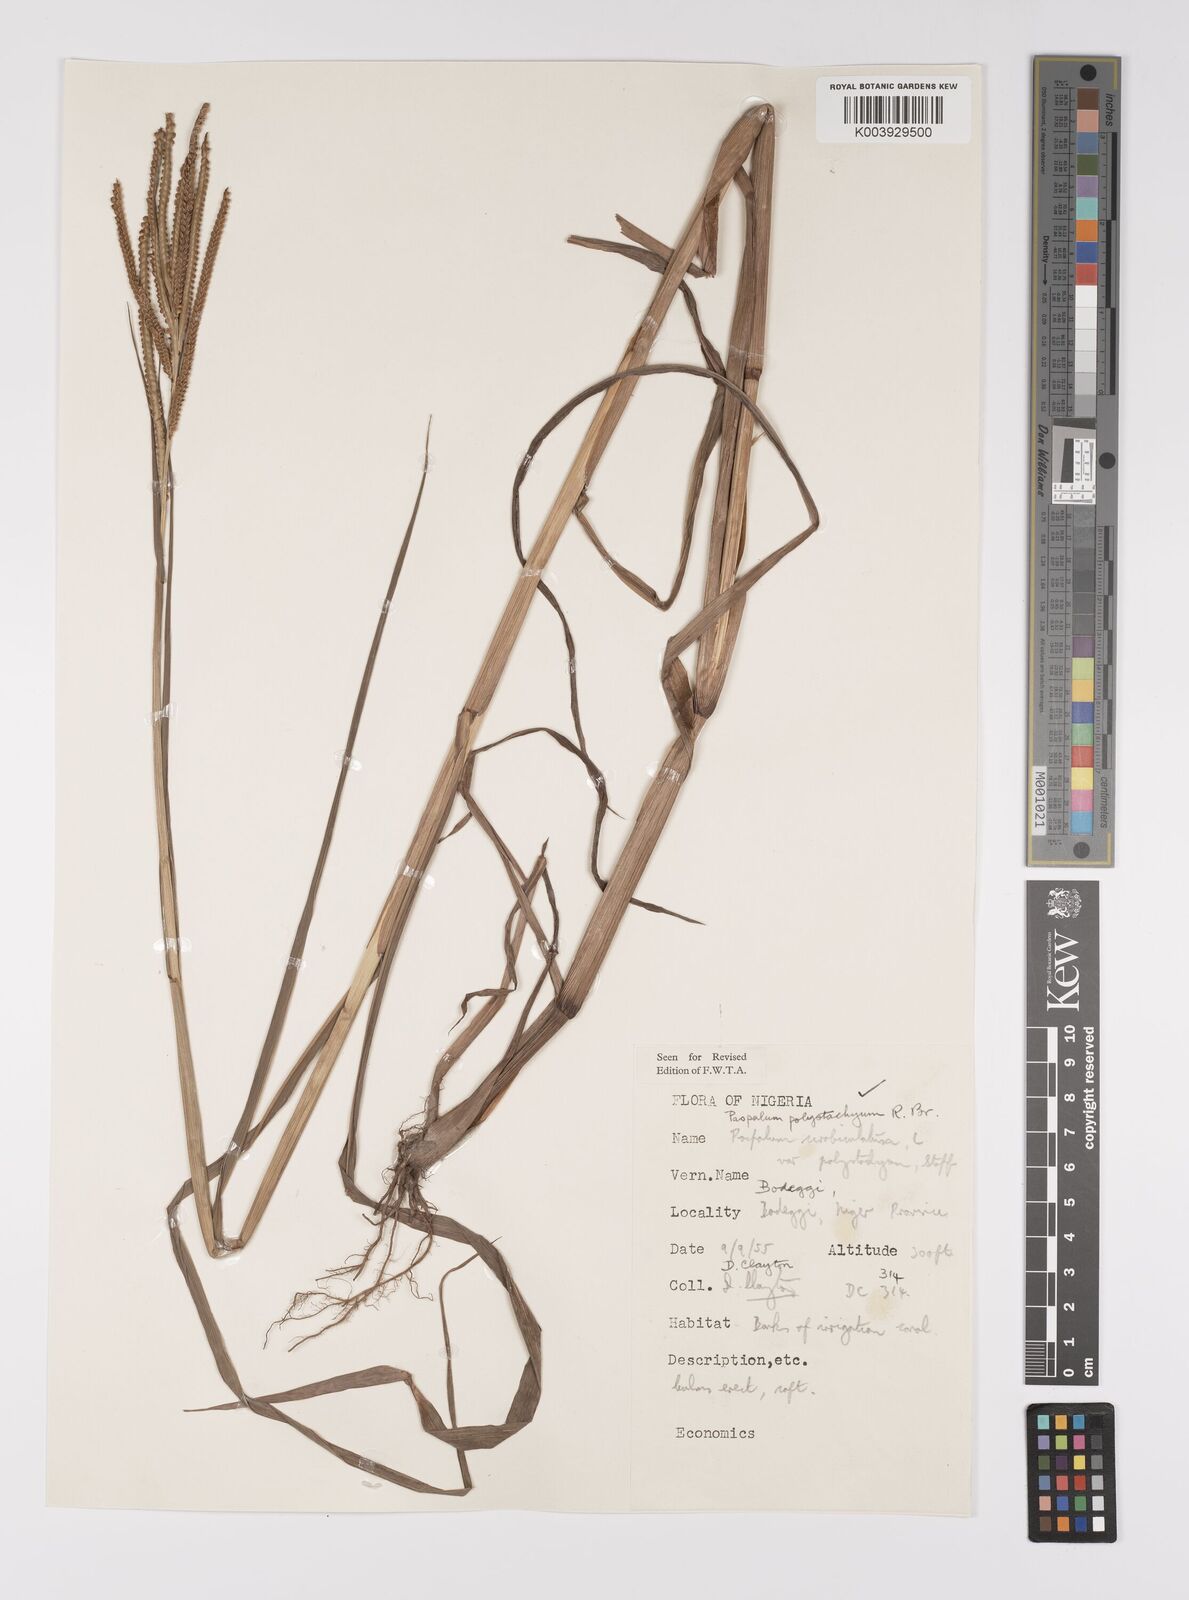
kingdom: Plantae
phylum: Tracheophyta
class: Liliopsida
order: Poales
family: Poaceae
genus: Paspalum
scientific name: Paspalum scrobiculatum
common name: Kodo millet
